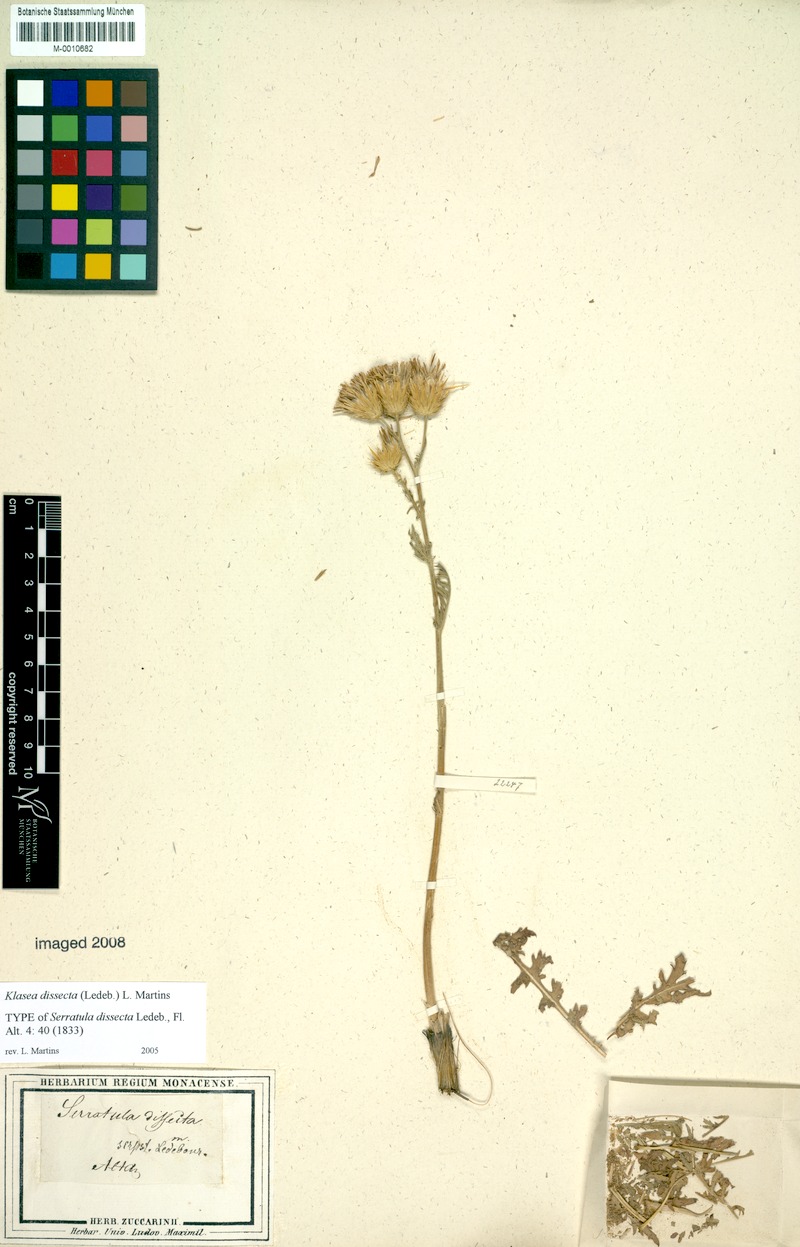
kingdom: Plantae
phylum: Tracheophyta
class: Magnoliopsida
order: Asterales
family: Asteraceae
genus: Klasea
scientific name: Klasea dissecta
